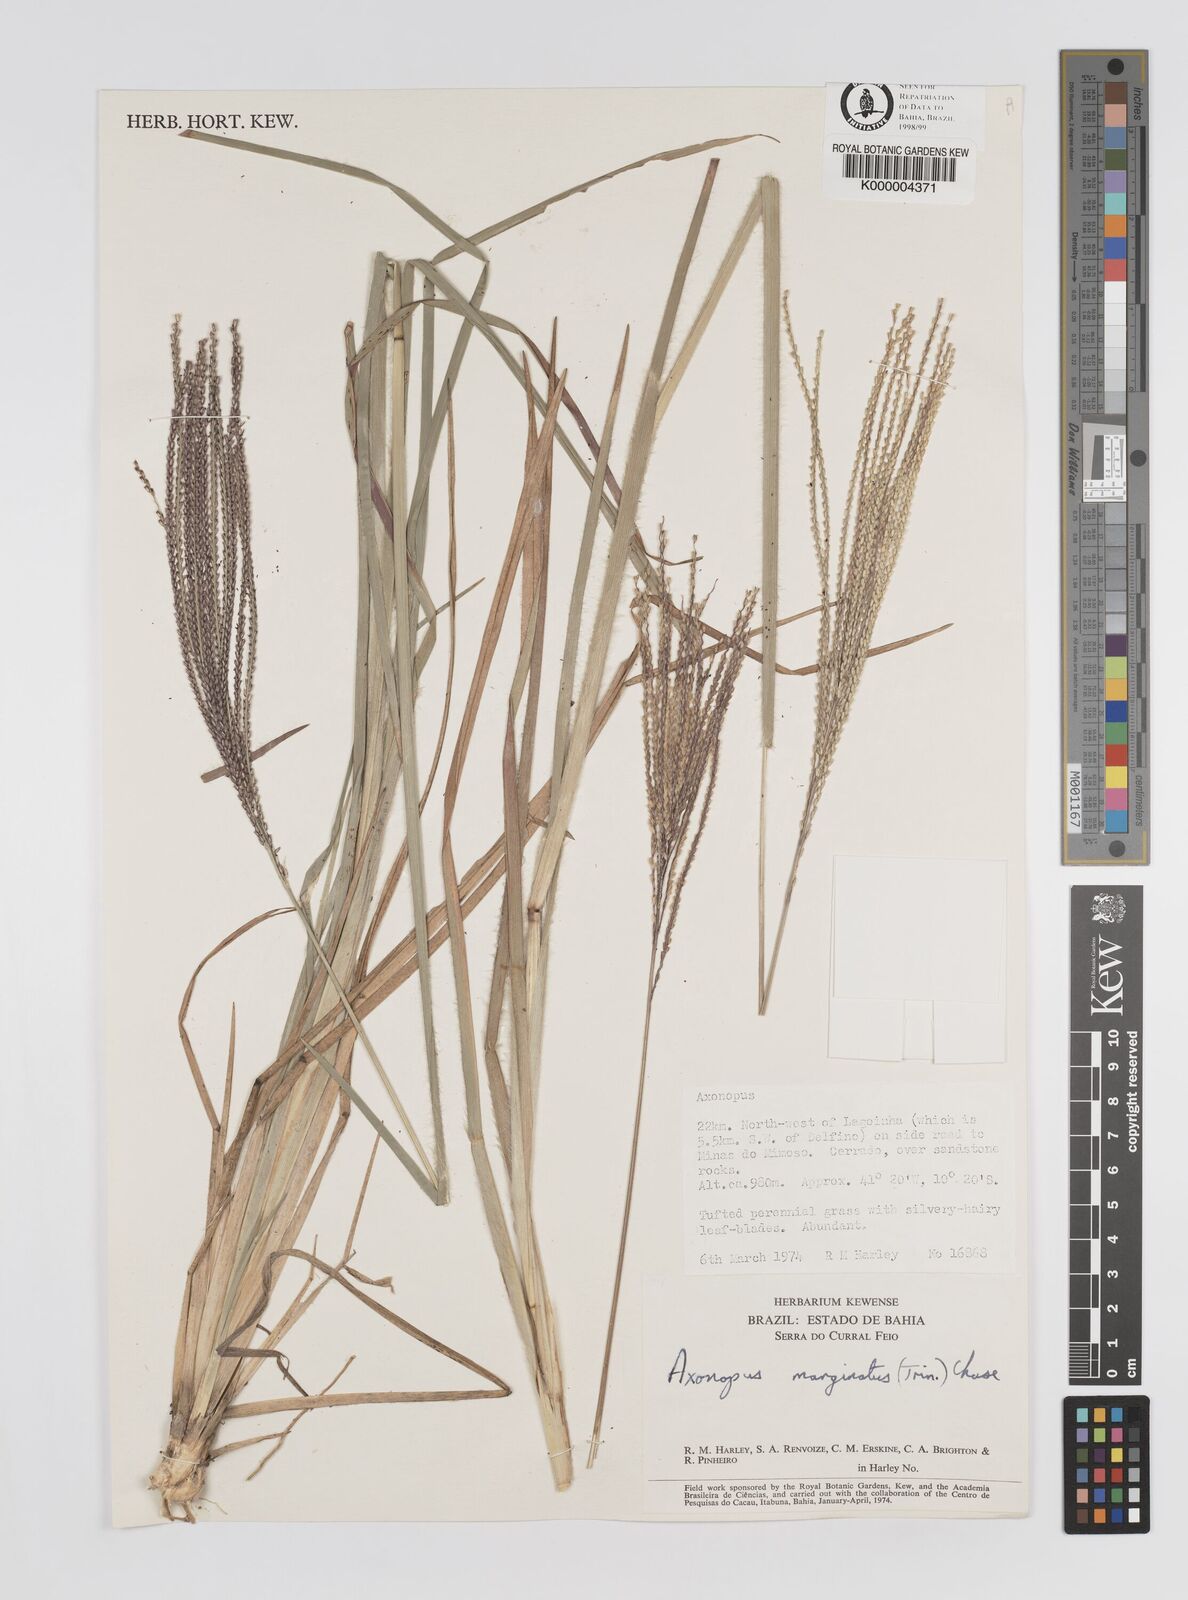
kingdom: Plantae
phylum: Tracheophyta
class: Liliopsida
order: Poales
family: Poaceae
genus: Axonopus
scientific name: Axonopus
